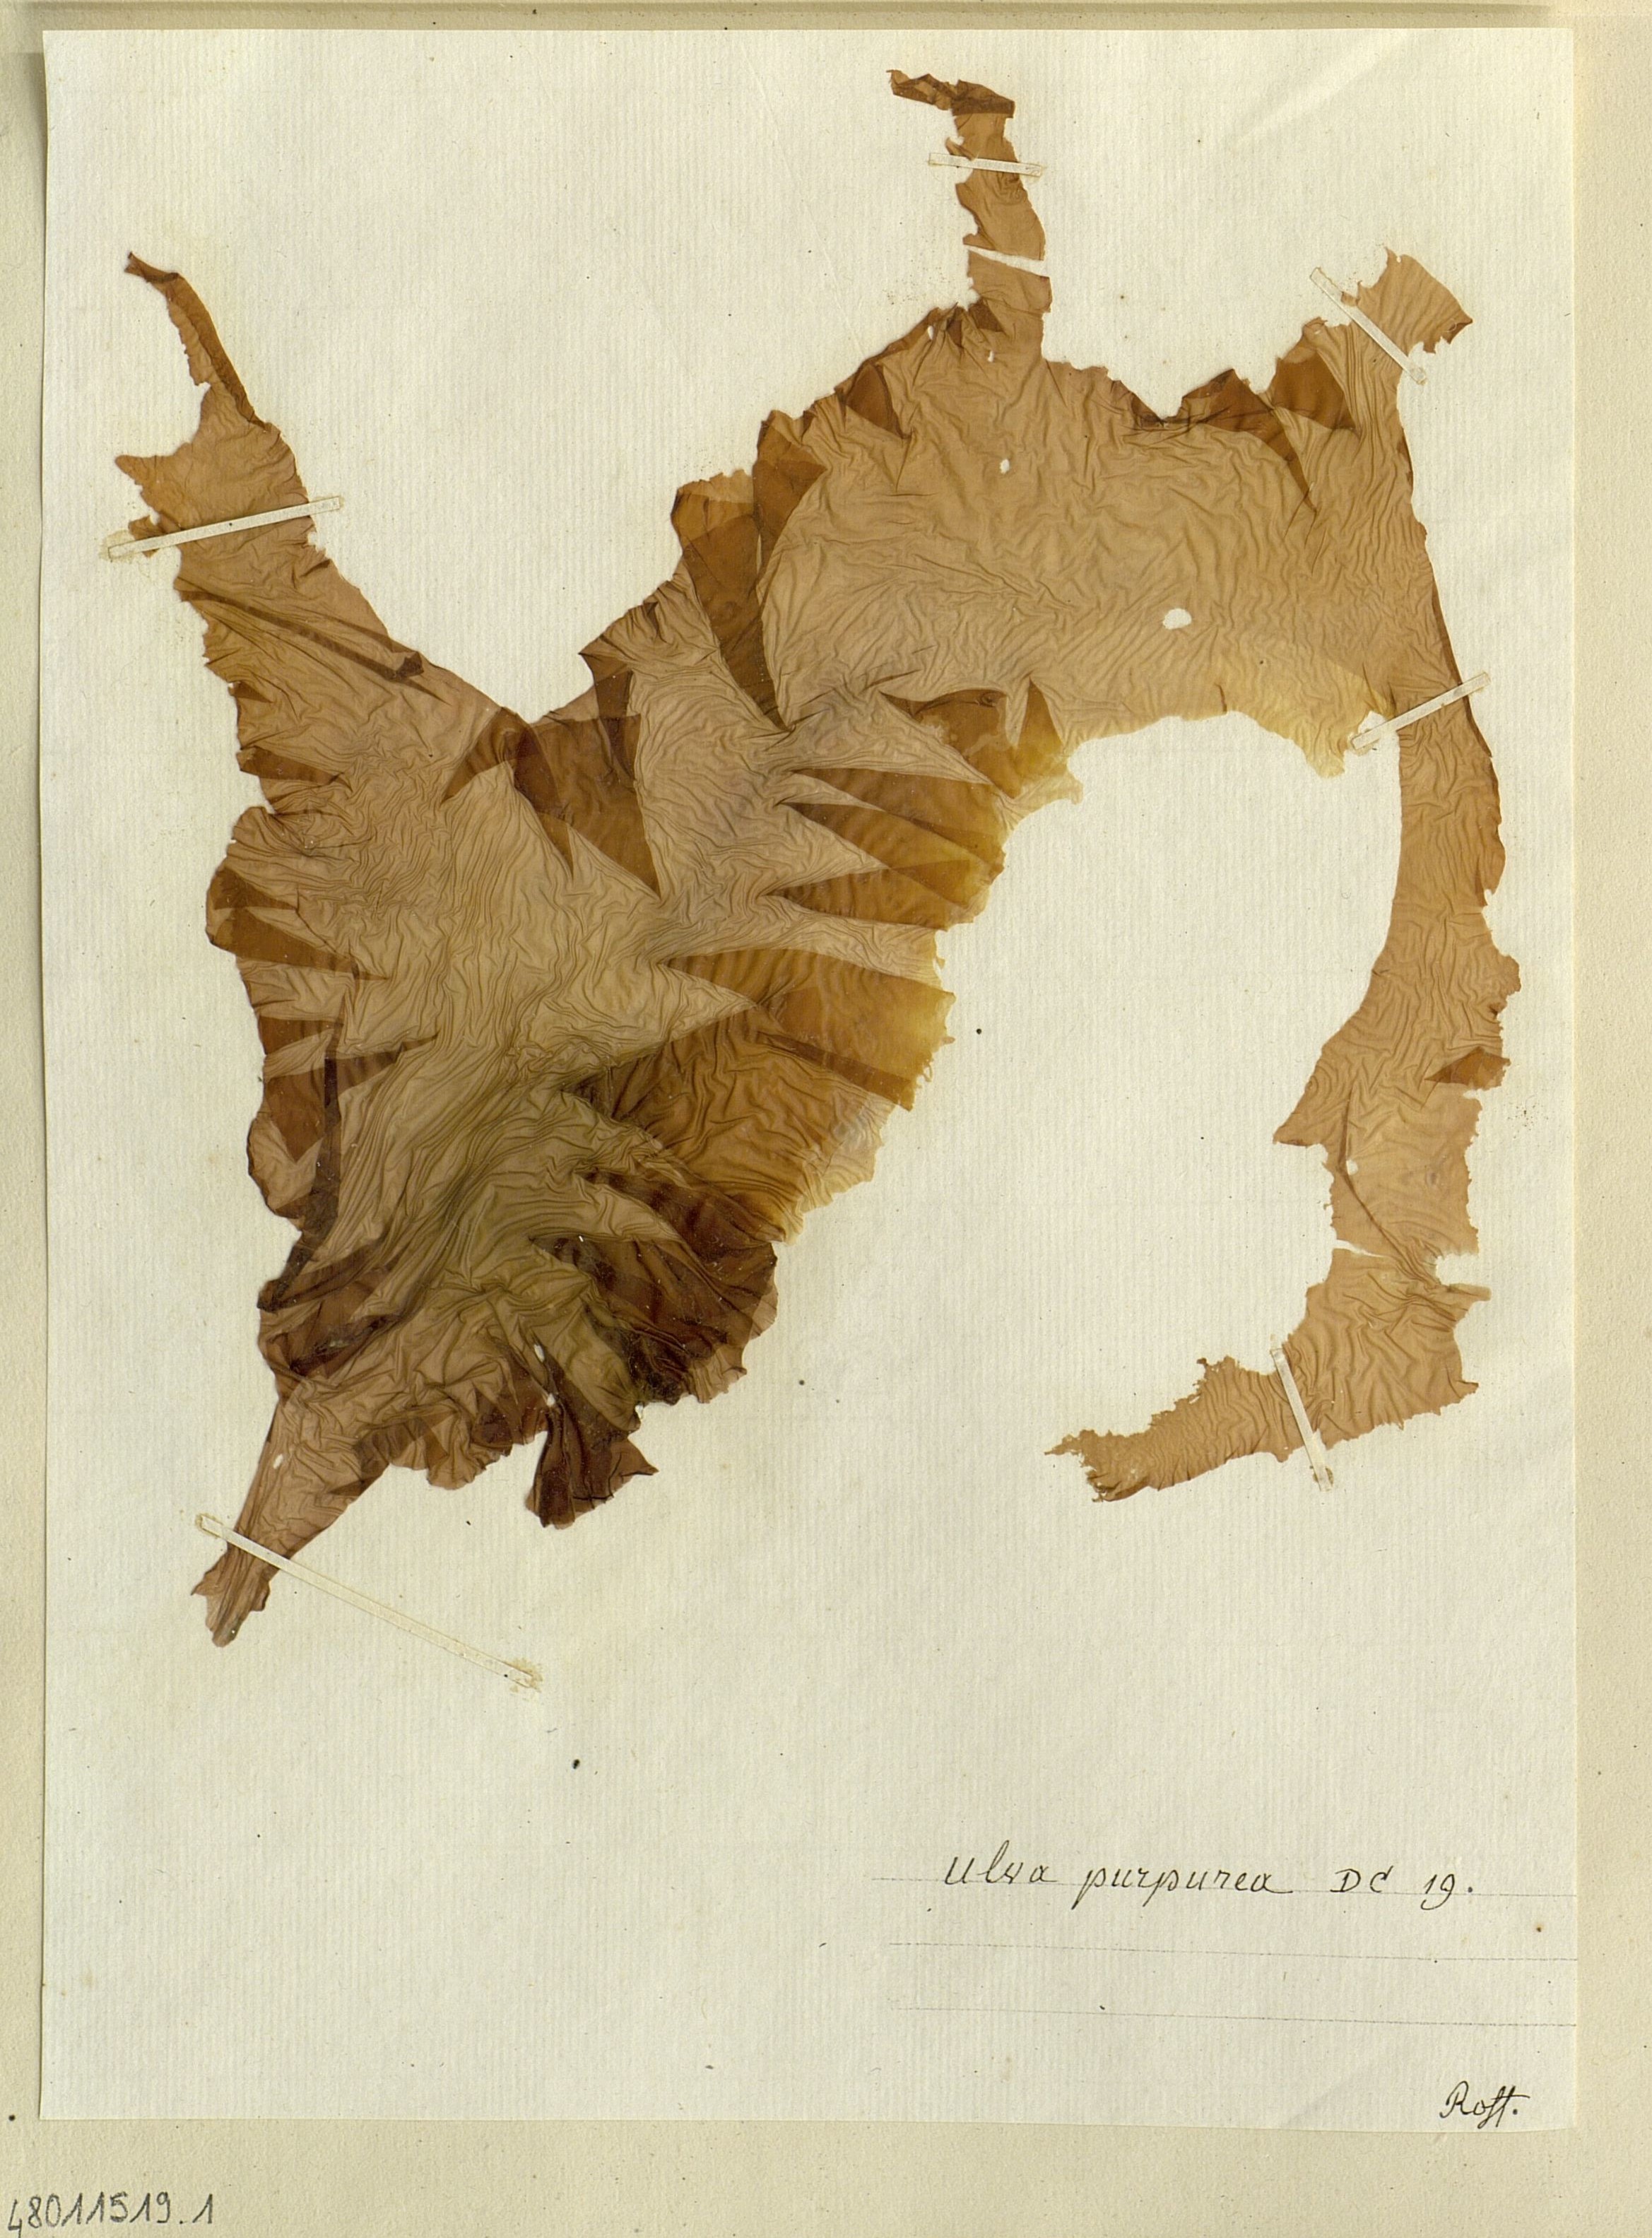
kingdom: Plantae
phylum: Chlorophyta
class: Ulvophyceae
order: Ulvales
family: Ulvaceae
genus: Ulva
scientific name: Ulva
